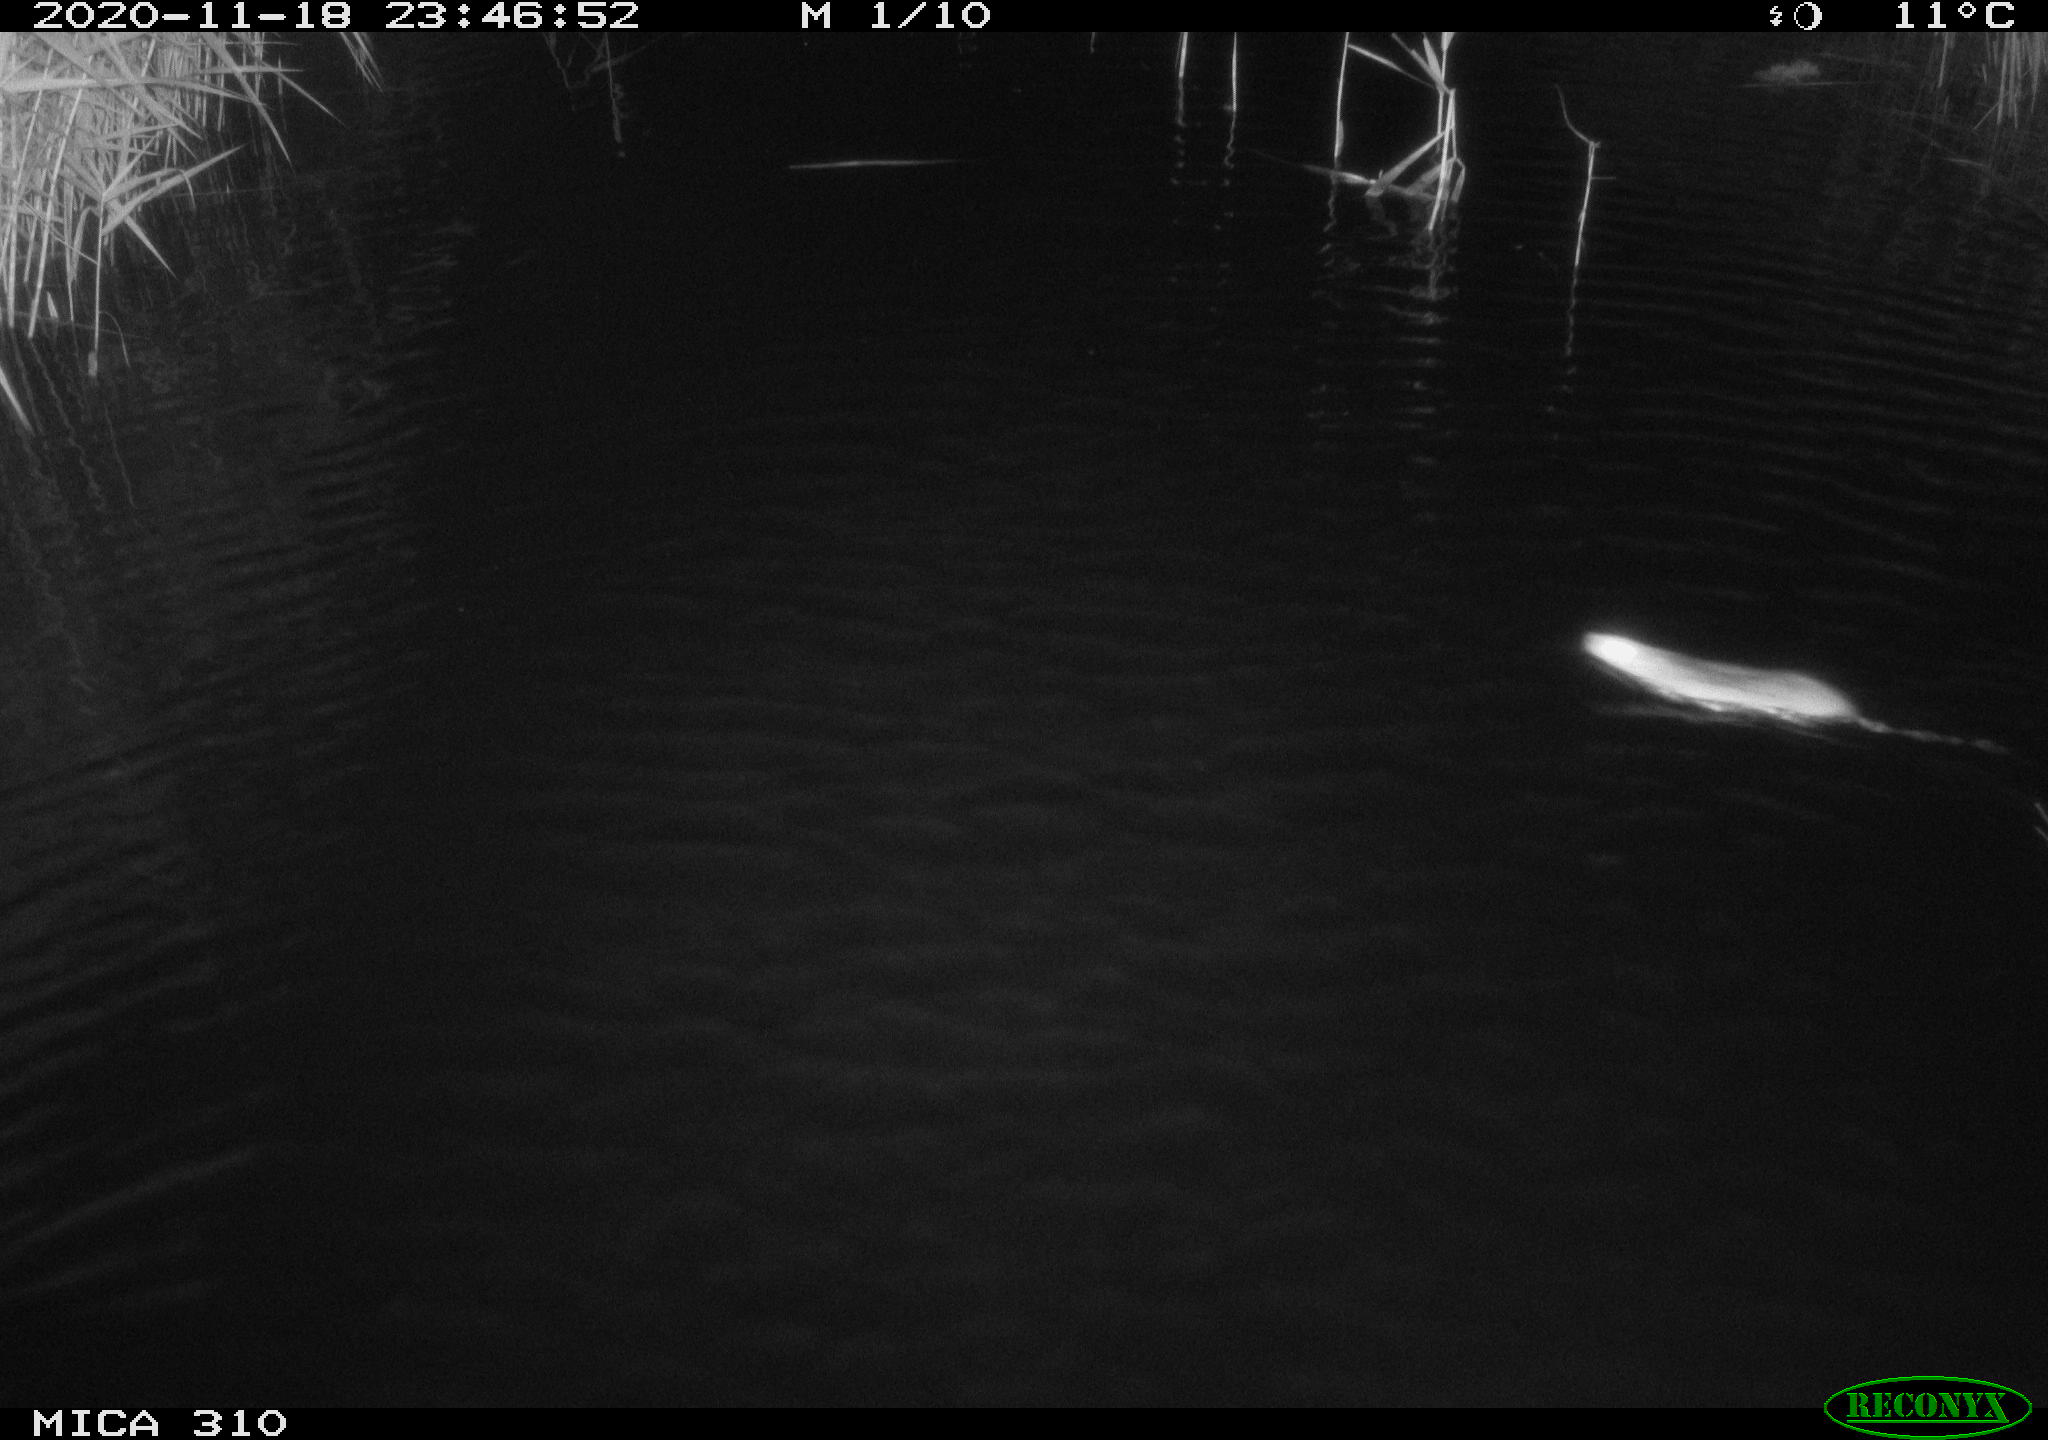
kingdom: Animalia
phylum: Chordata
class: Mammalia
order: Rodentia
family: Muridae
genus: Rattus
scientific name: Rattus norvegicus
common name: Brown rat
